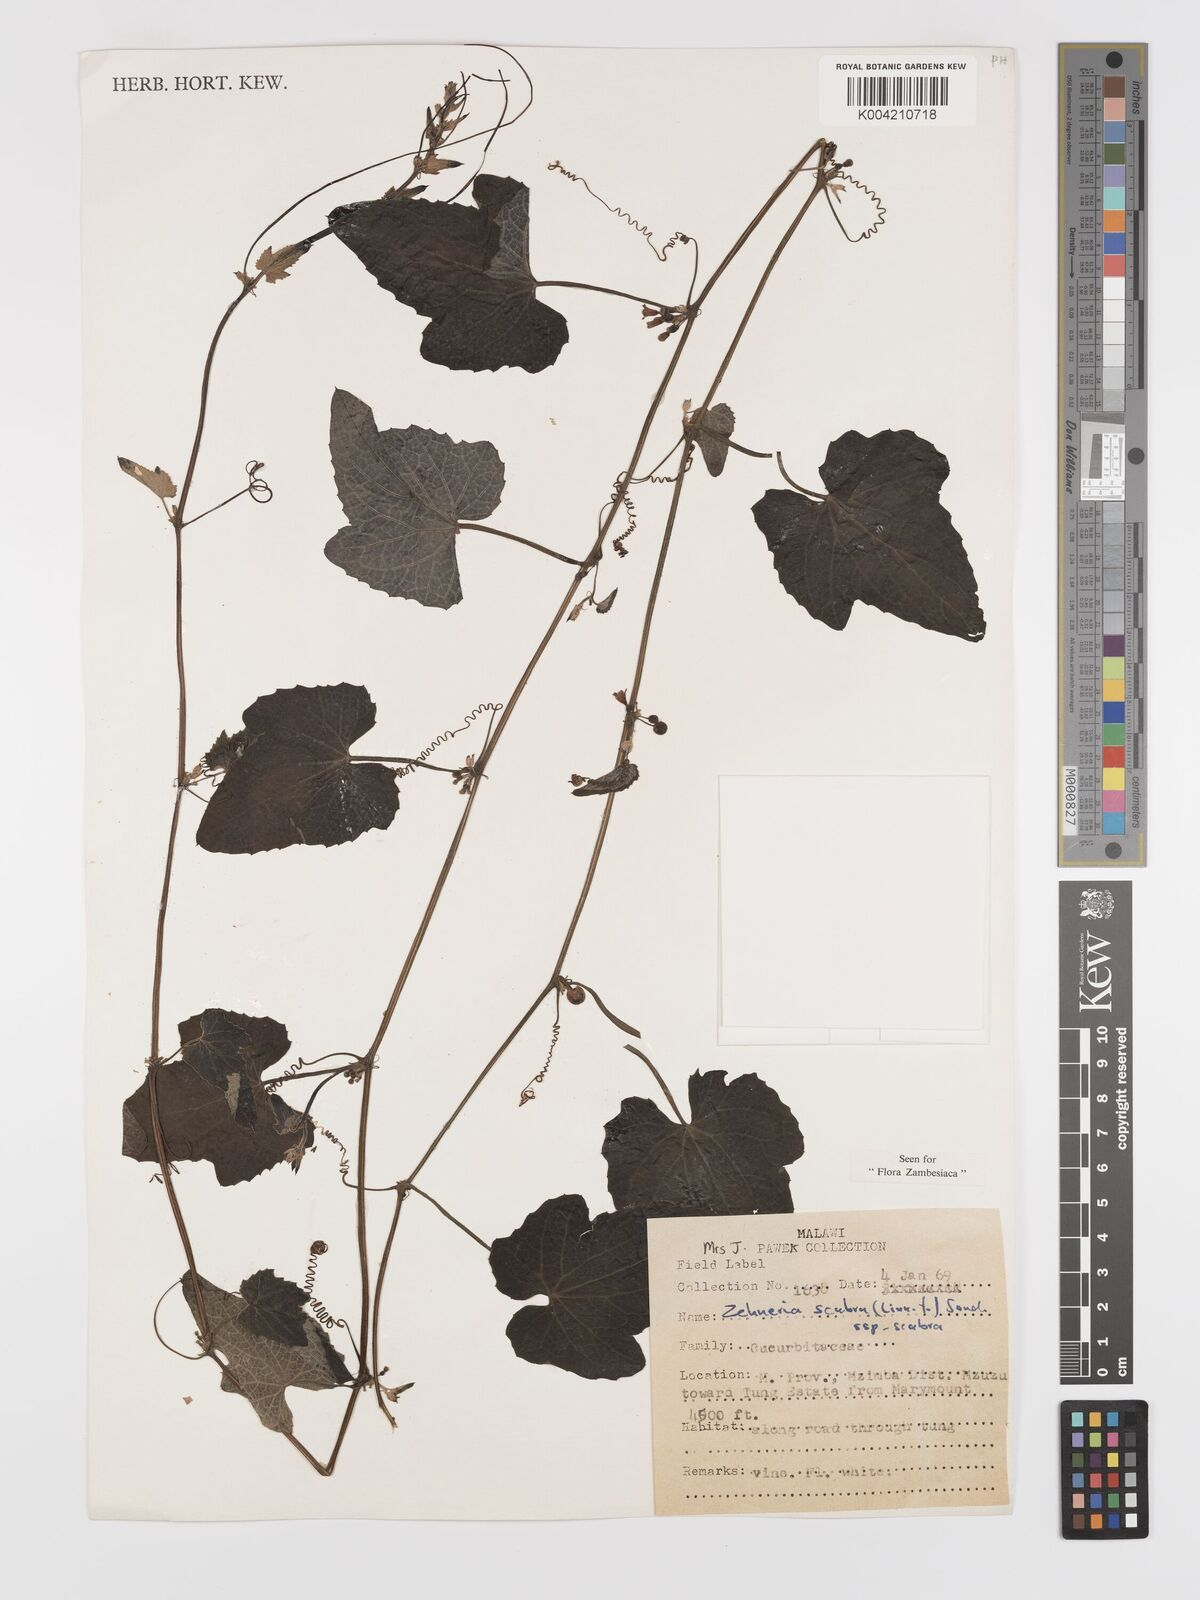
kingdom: Plantae
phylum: Tracheophyta
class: Magnoliopsida
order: Cucurbitales
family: Cucurbitaceae
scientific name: Cucurbitaceae
